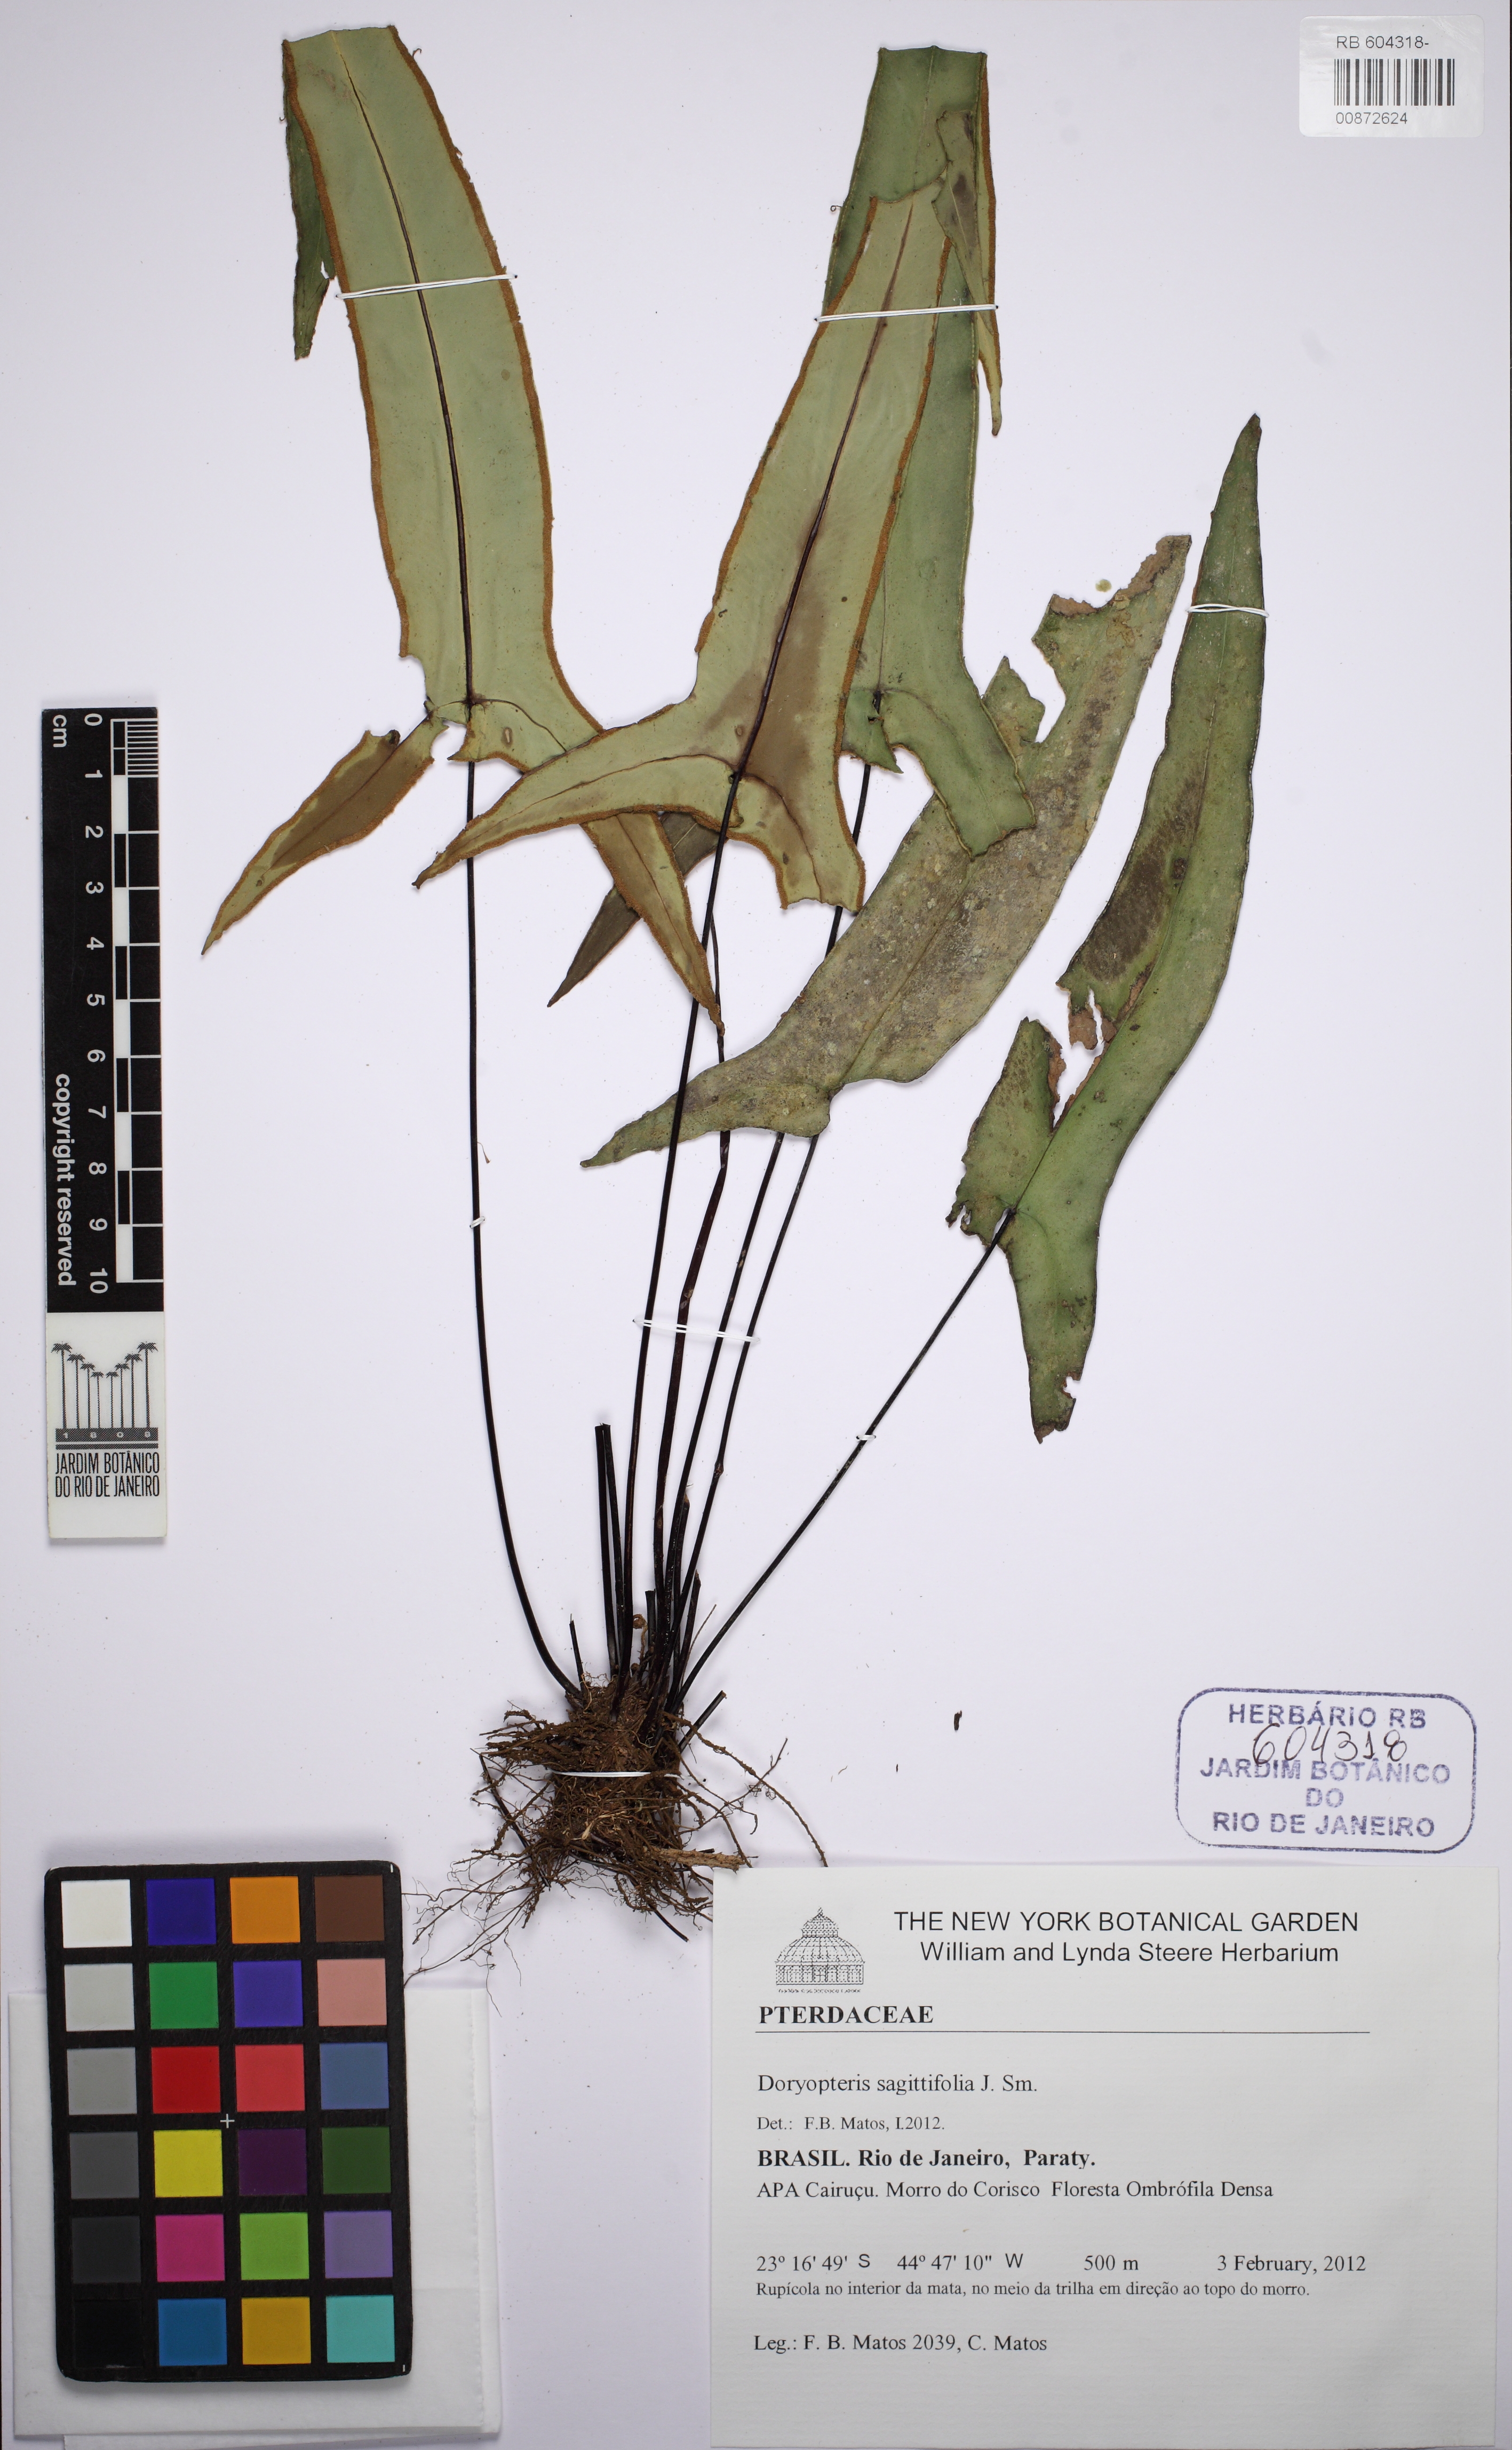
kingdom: Plantae
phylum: Tracheophyta
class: Polypodiopsida
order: Polypodiales
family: Pteridaceae
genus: Doryopteris
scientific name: Doryopteris sagittifolia
